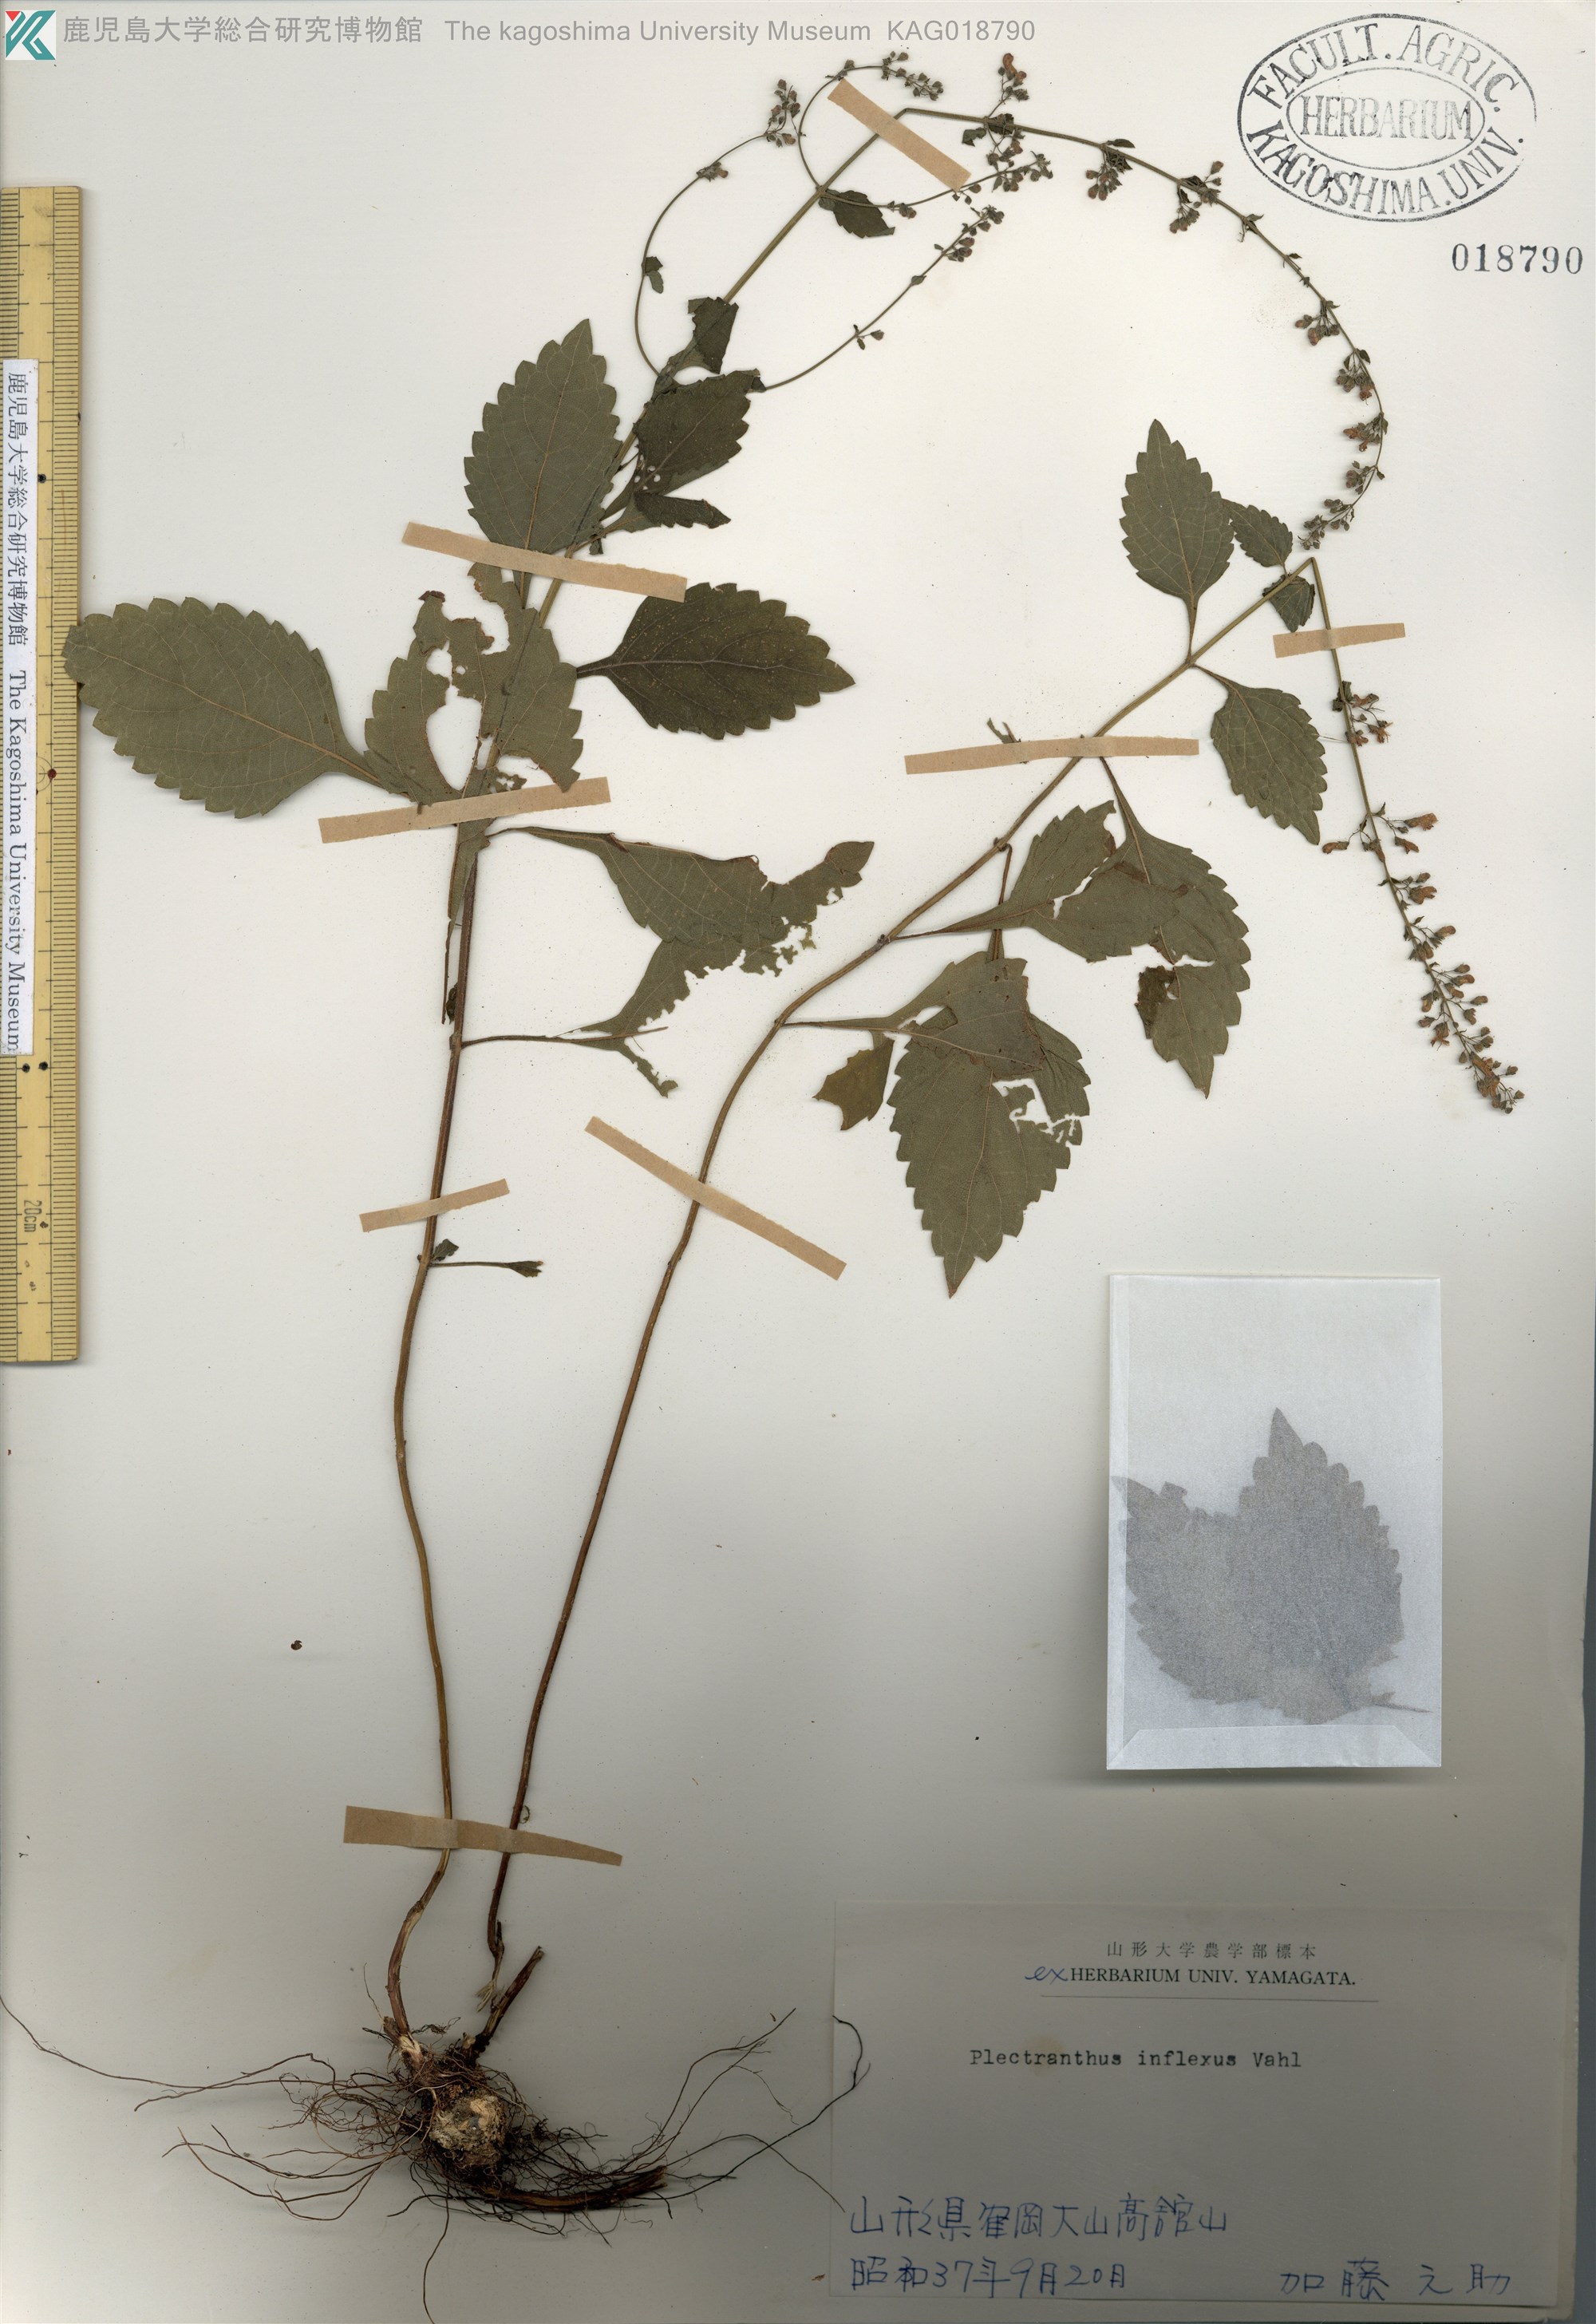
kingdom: Plantae
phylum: Tracheophyta
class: Magnoliopsida
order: Lamiales
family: Lamiaceae
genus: Isodon
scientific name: Isodon inflexus
